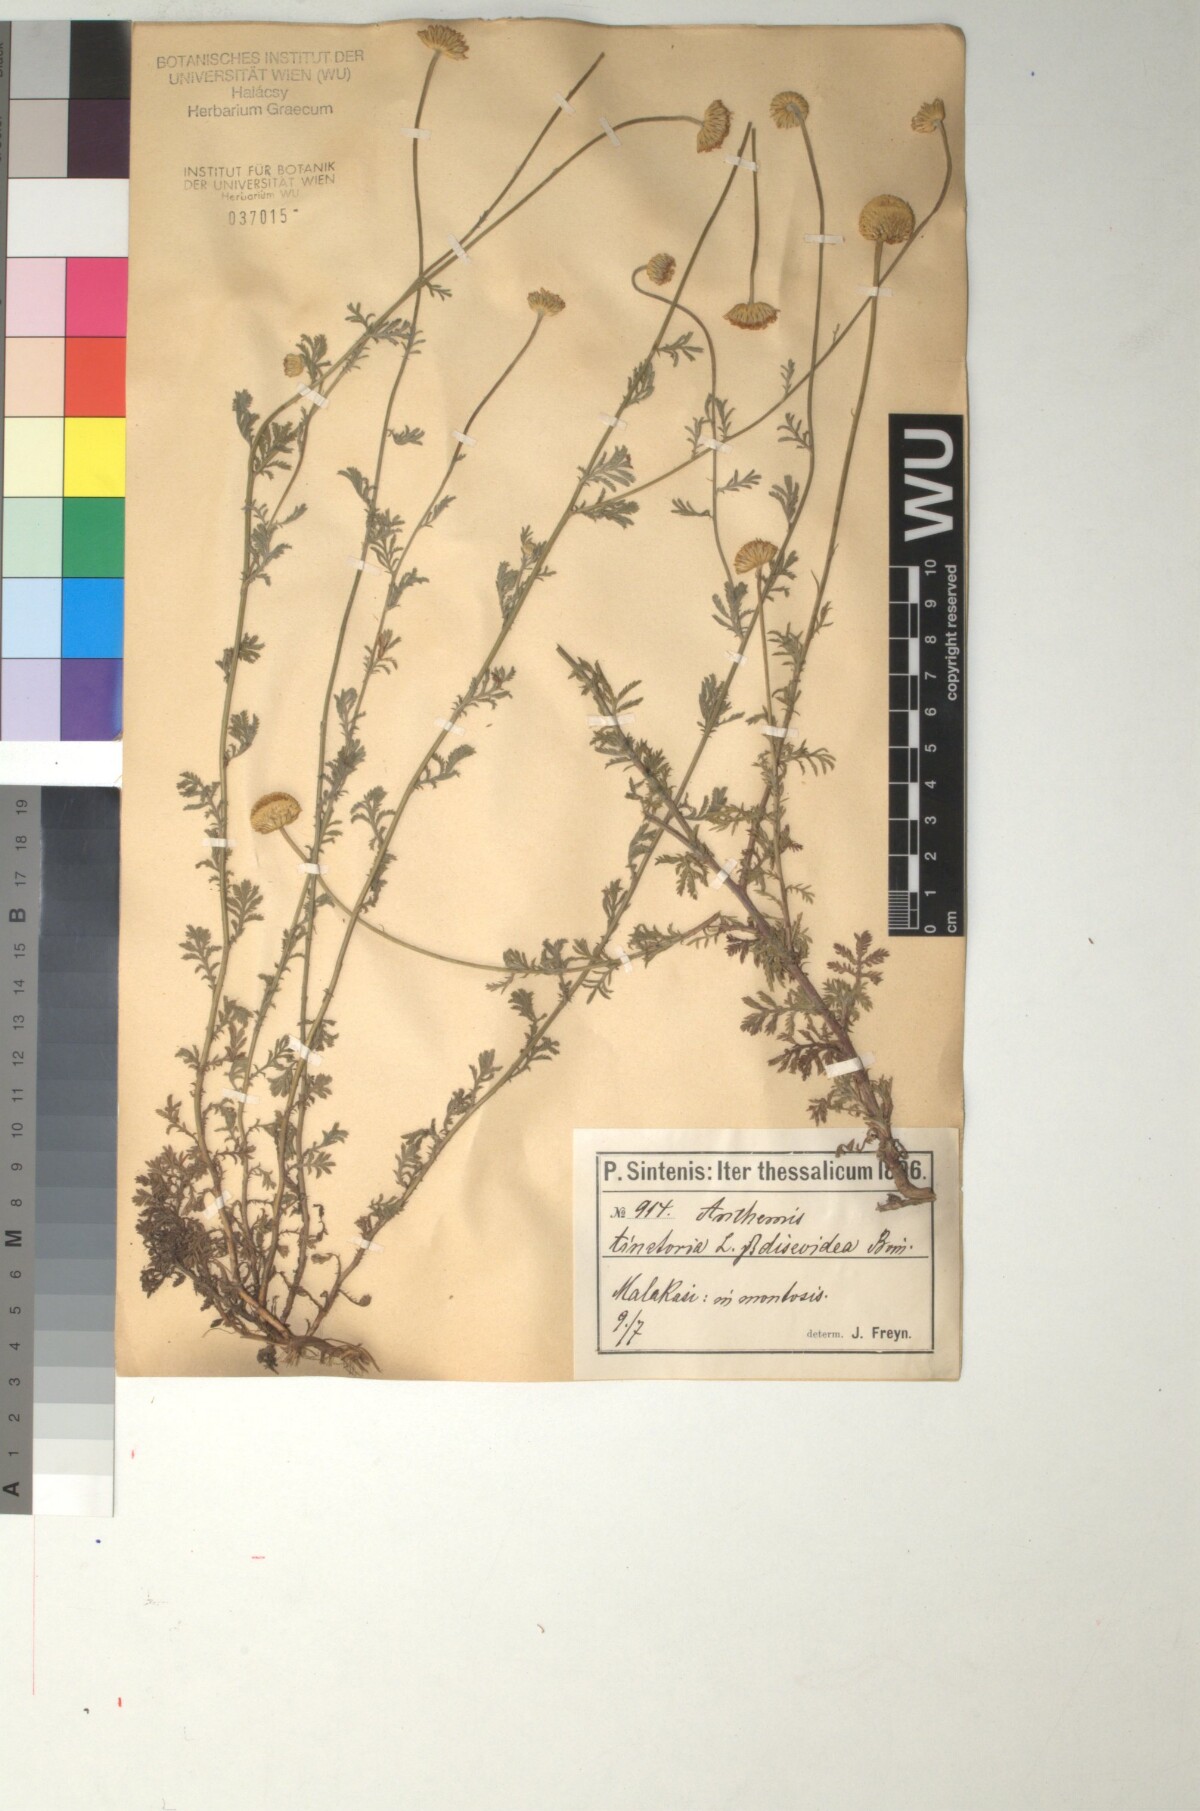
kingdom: Plantae
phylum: Tracheophyta
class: Magnoliopsida
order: Asterales
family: Asteraceae
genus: Cota
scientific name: Cota tinctoria
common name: Golden chamomile
